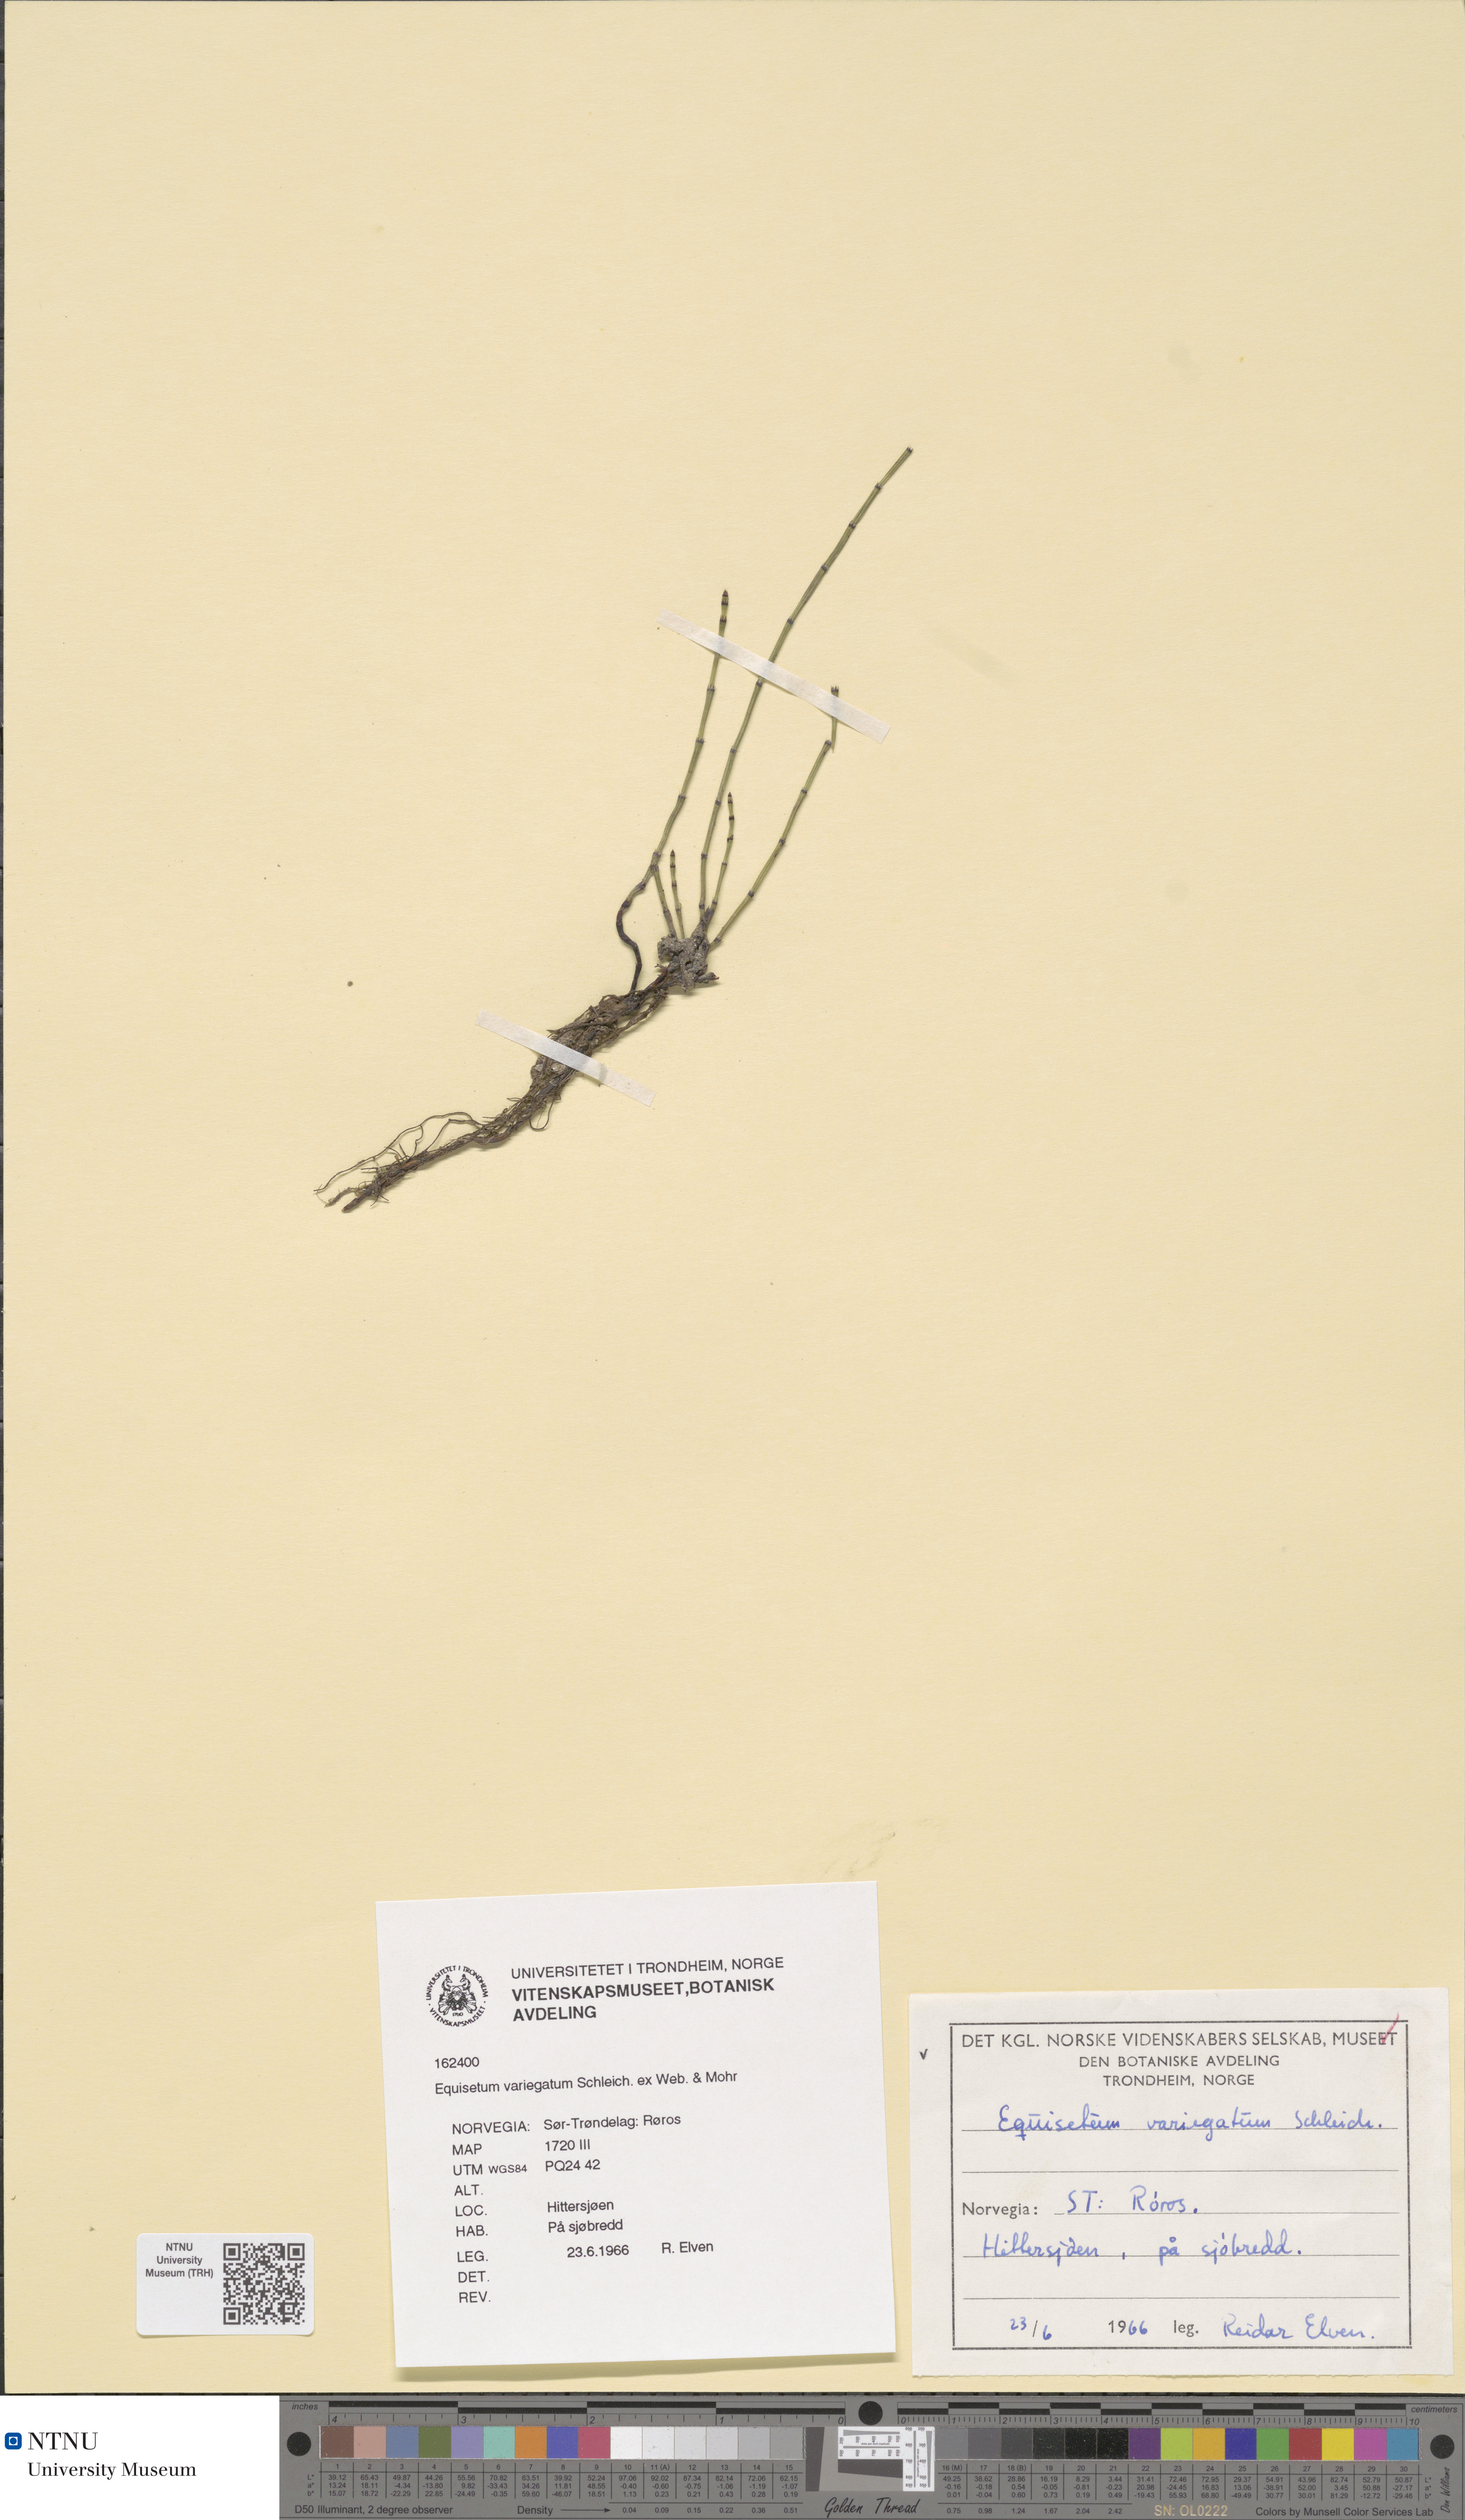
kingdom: Plantae
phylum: Tracheophyta
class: Polypodiopsida
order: Equisetales
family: Equisetaceae
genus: Equisetum
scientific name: Equisetum variegatum
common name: Variegated horsetail
